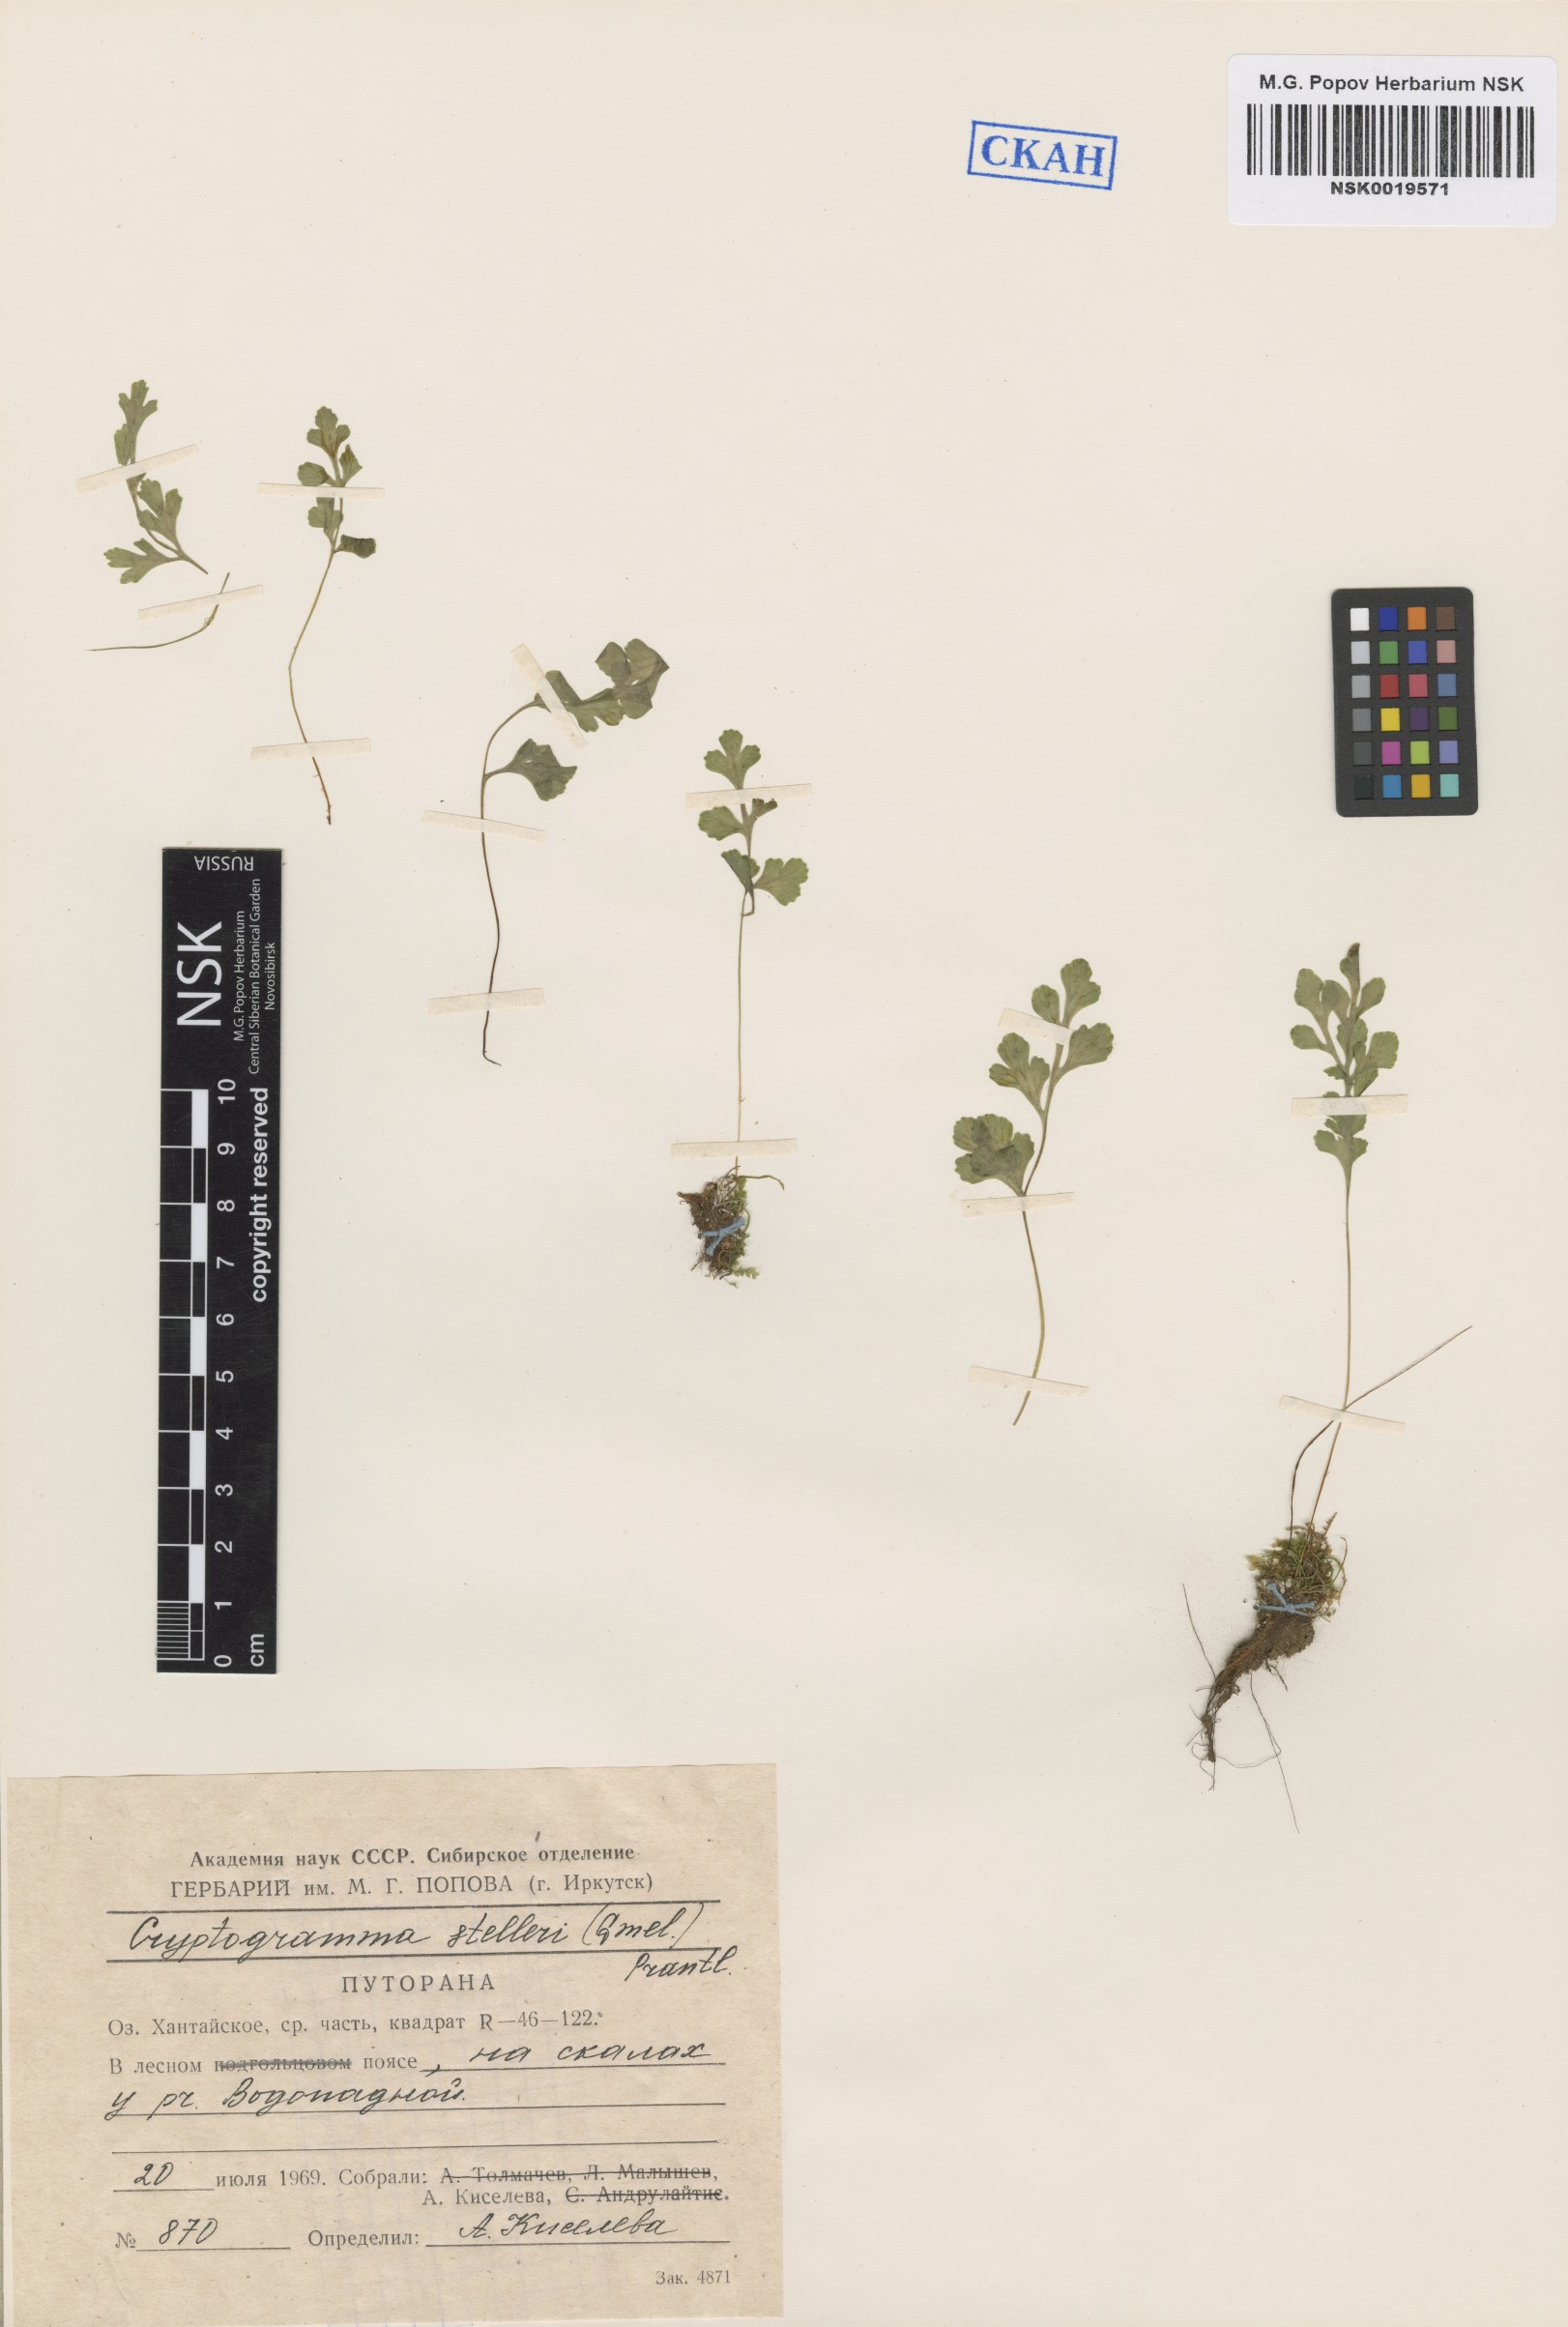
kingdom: Plantae
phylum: Tracheophyta
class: Polypodiopsida
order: Polypodiales
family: Pteridaceae
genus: Cryptogramma
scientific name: Cryptogramma stelleri
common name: Cliff-brake
